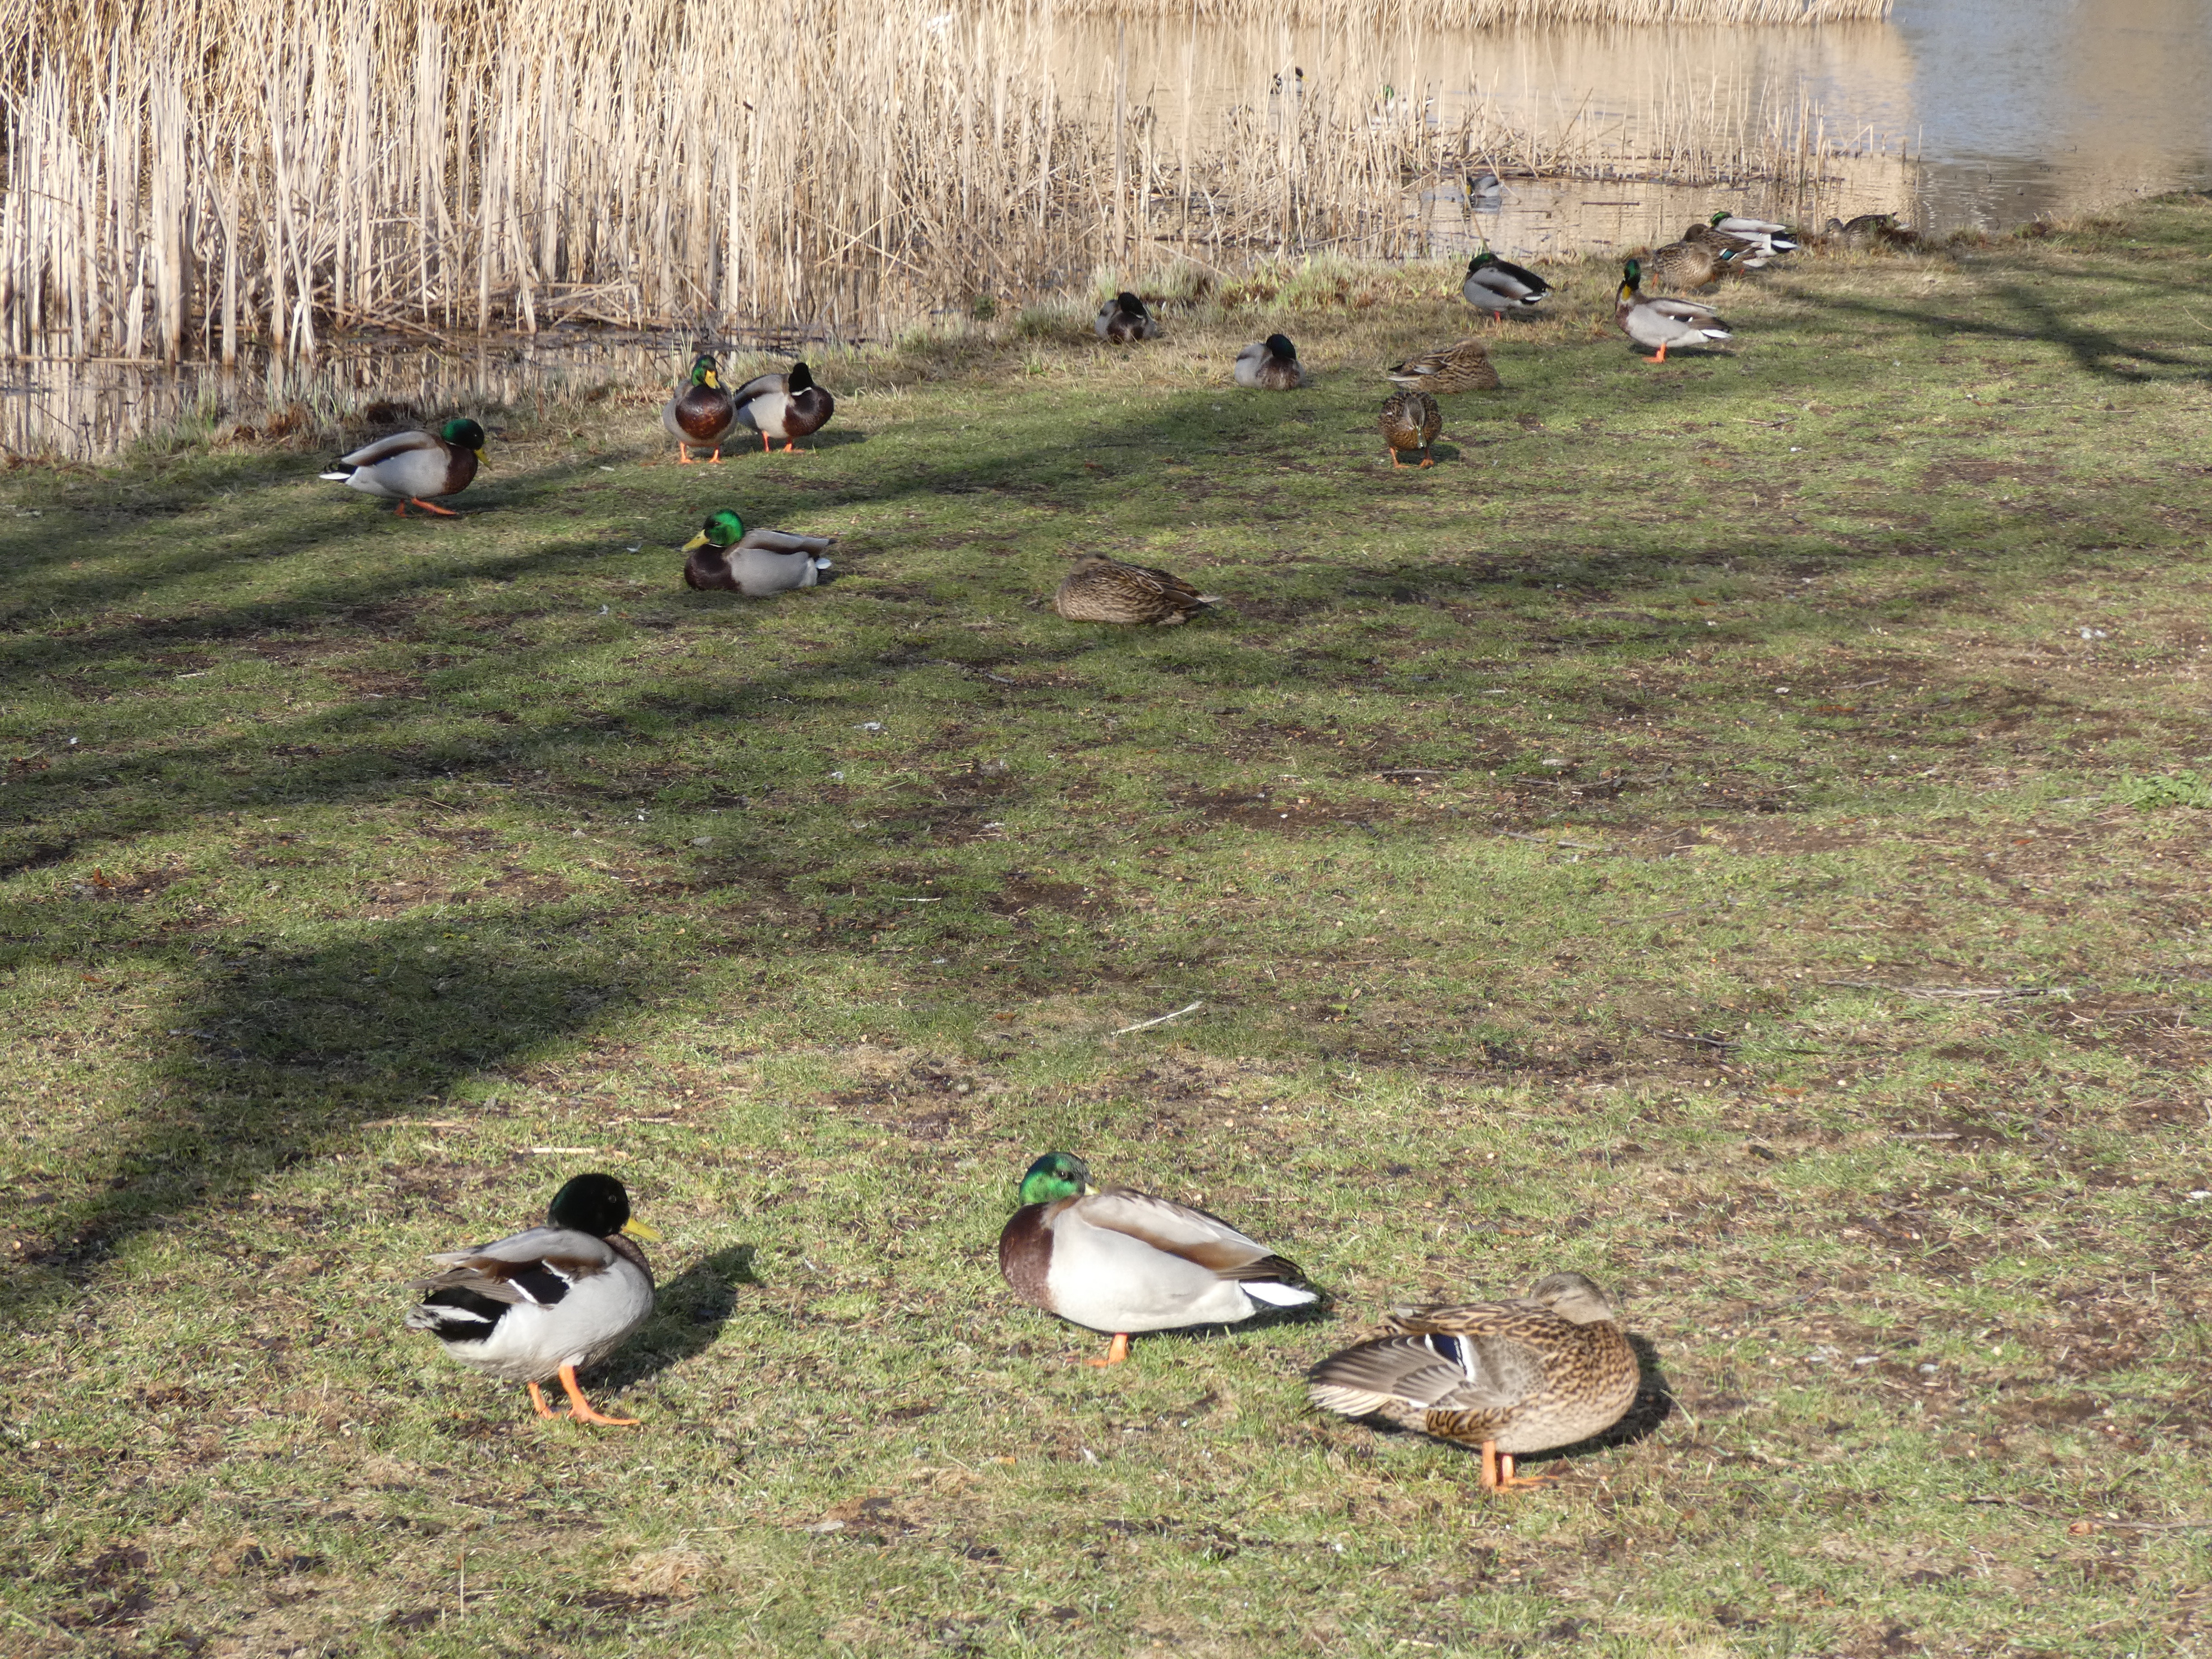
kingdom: Animalia
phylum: Chordata
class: Aves
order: Anseriformes
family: Anatidae
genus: Anas
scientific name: Anas platyrhynchos
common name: Gråand
